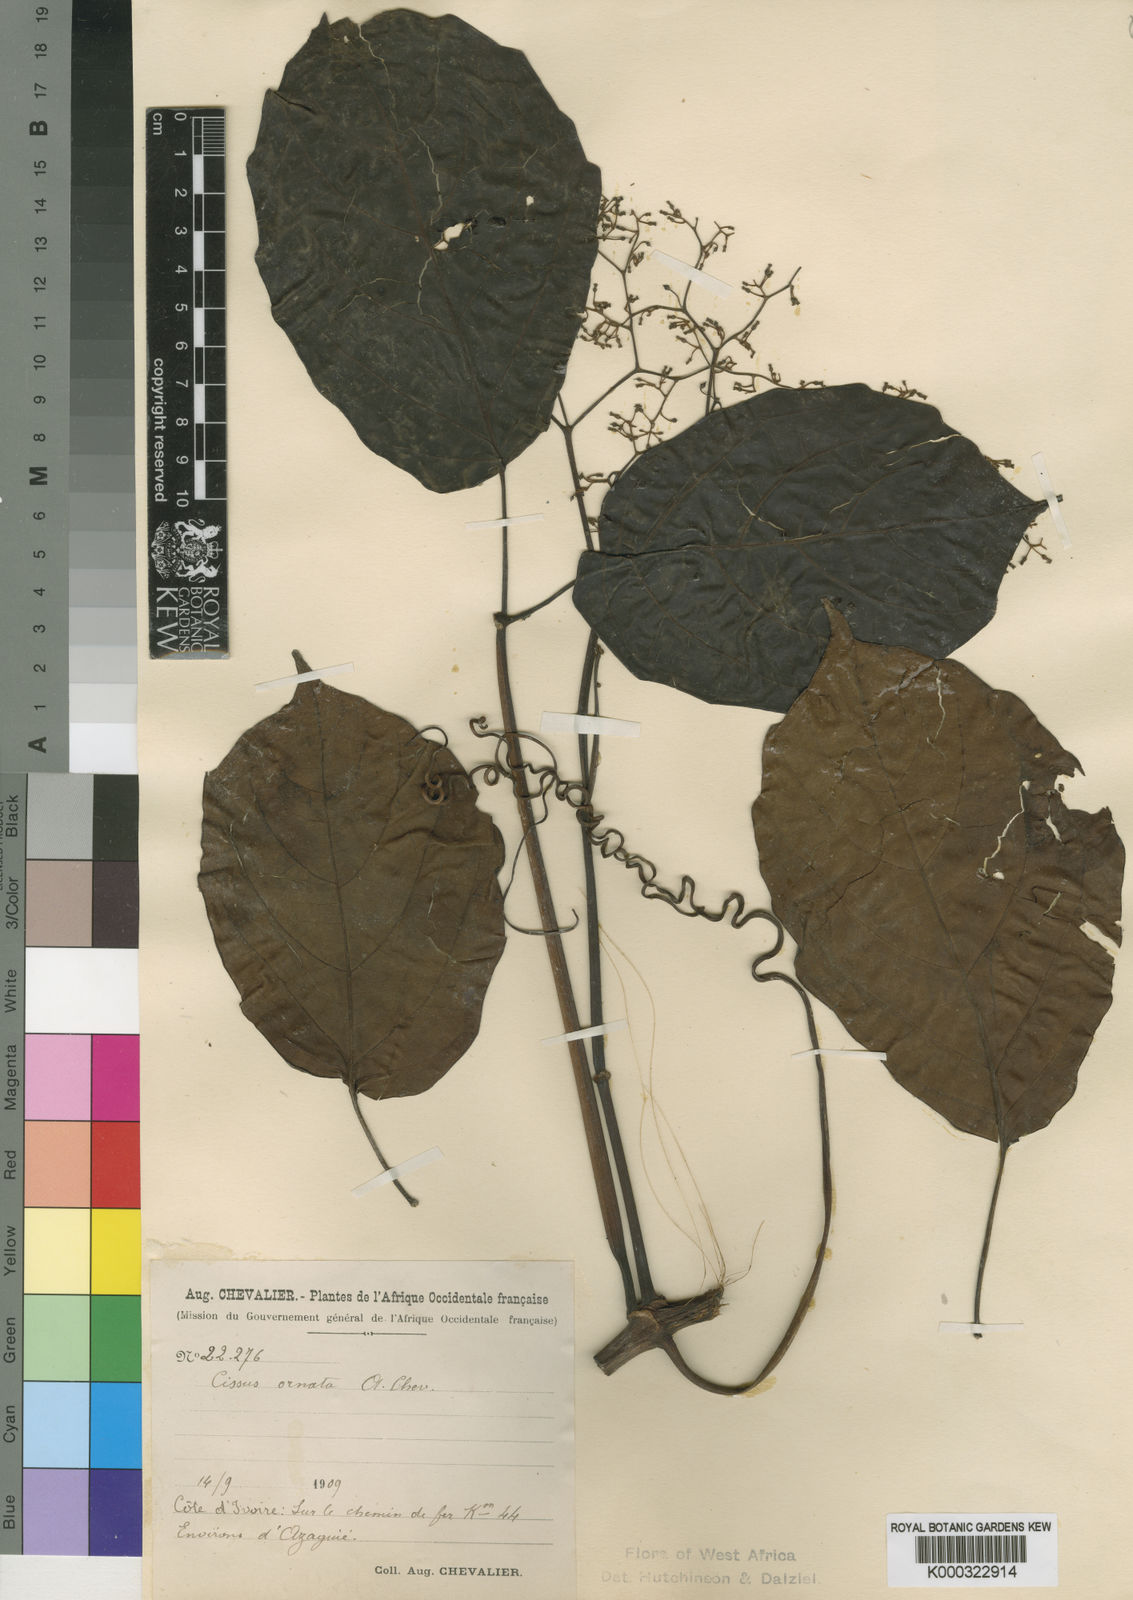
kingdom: Plantae
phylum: Tracheophyta
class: Magnoliopsida
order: Vitales
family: Vitaceae
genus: Cyphostemma
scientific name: Cyphostemma ornatum
